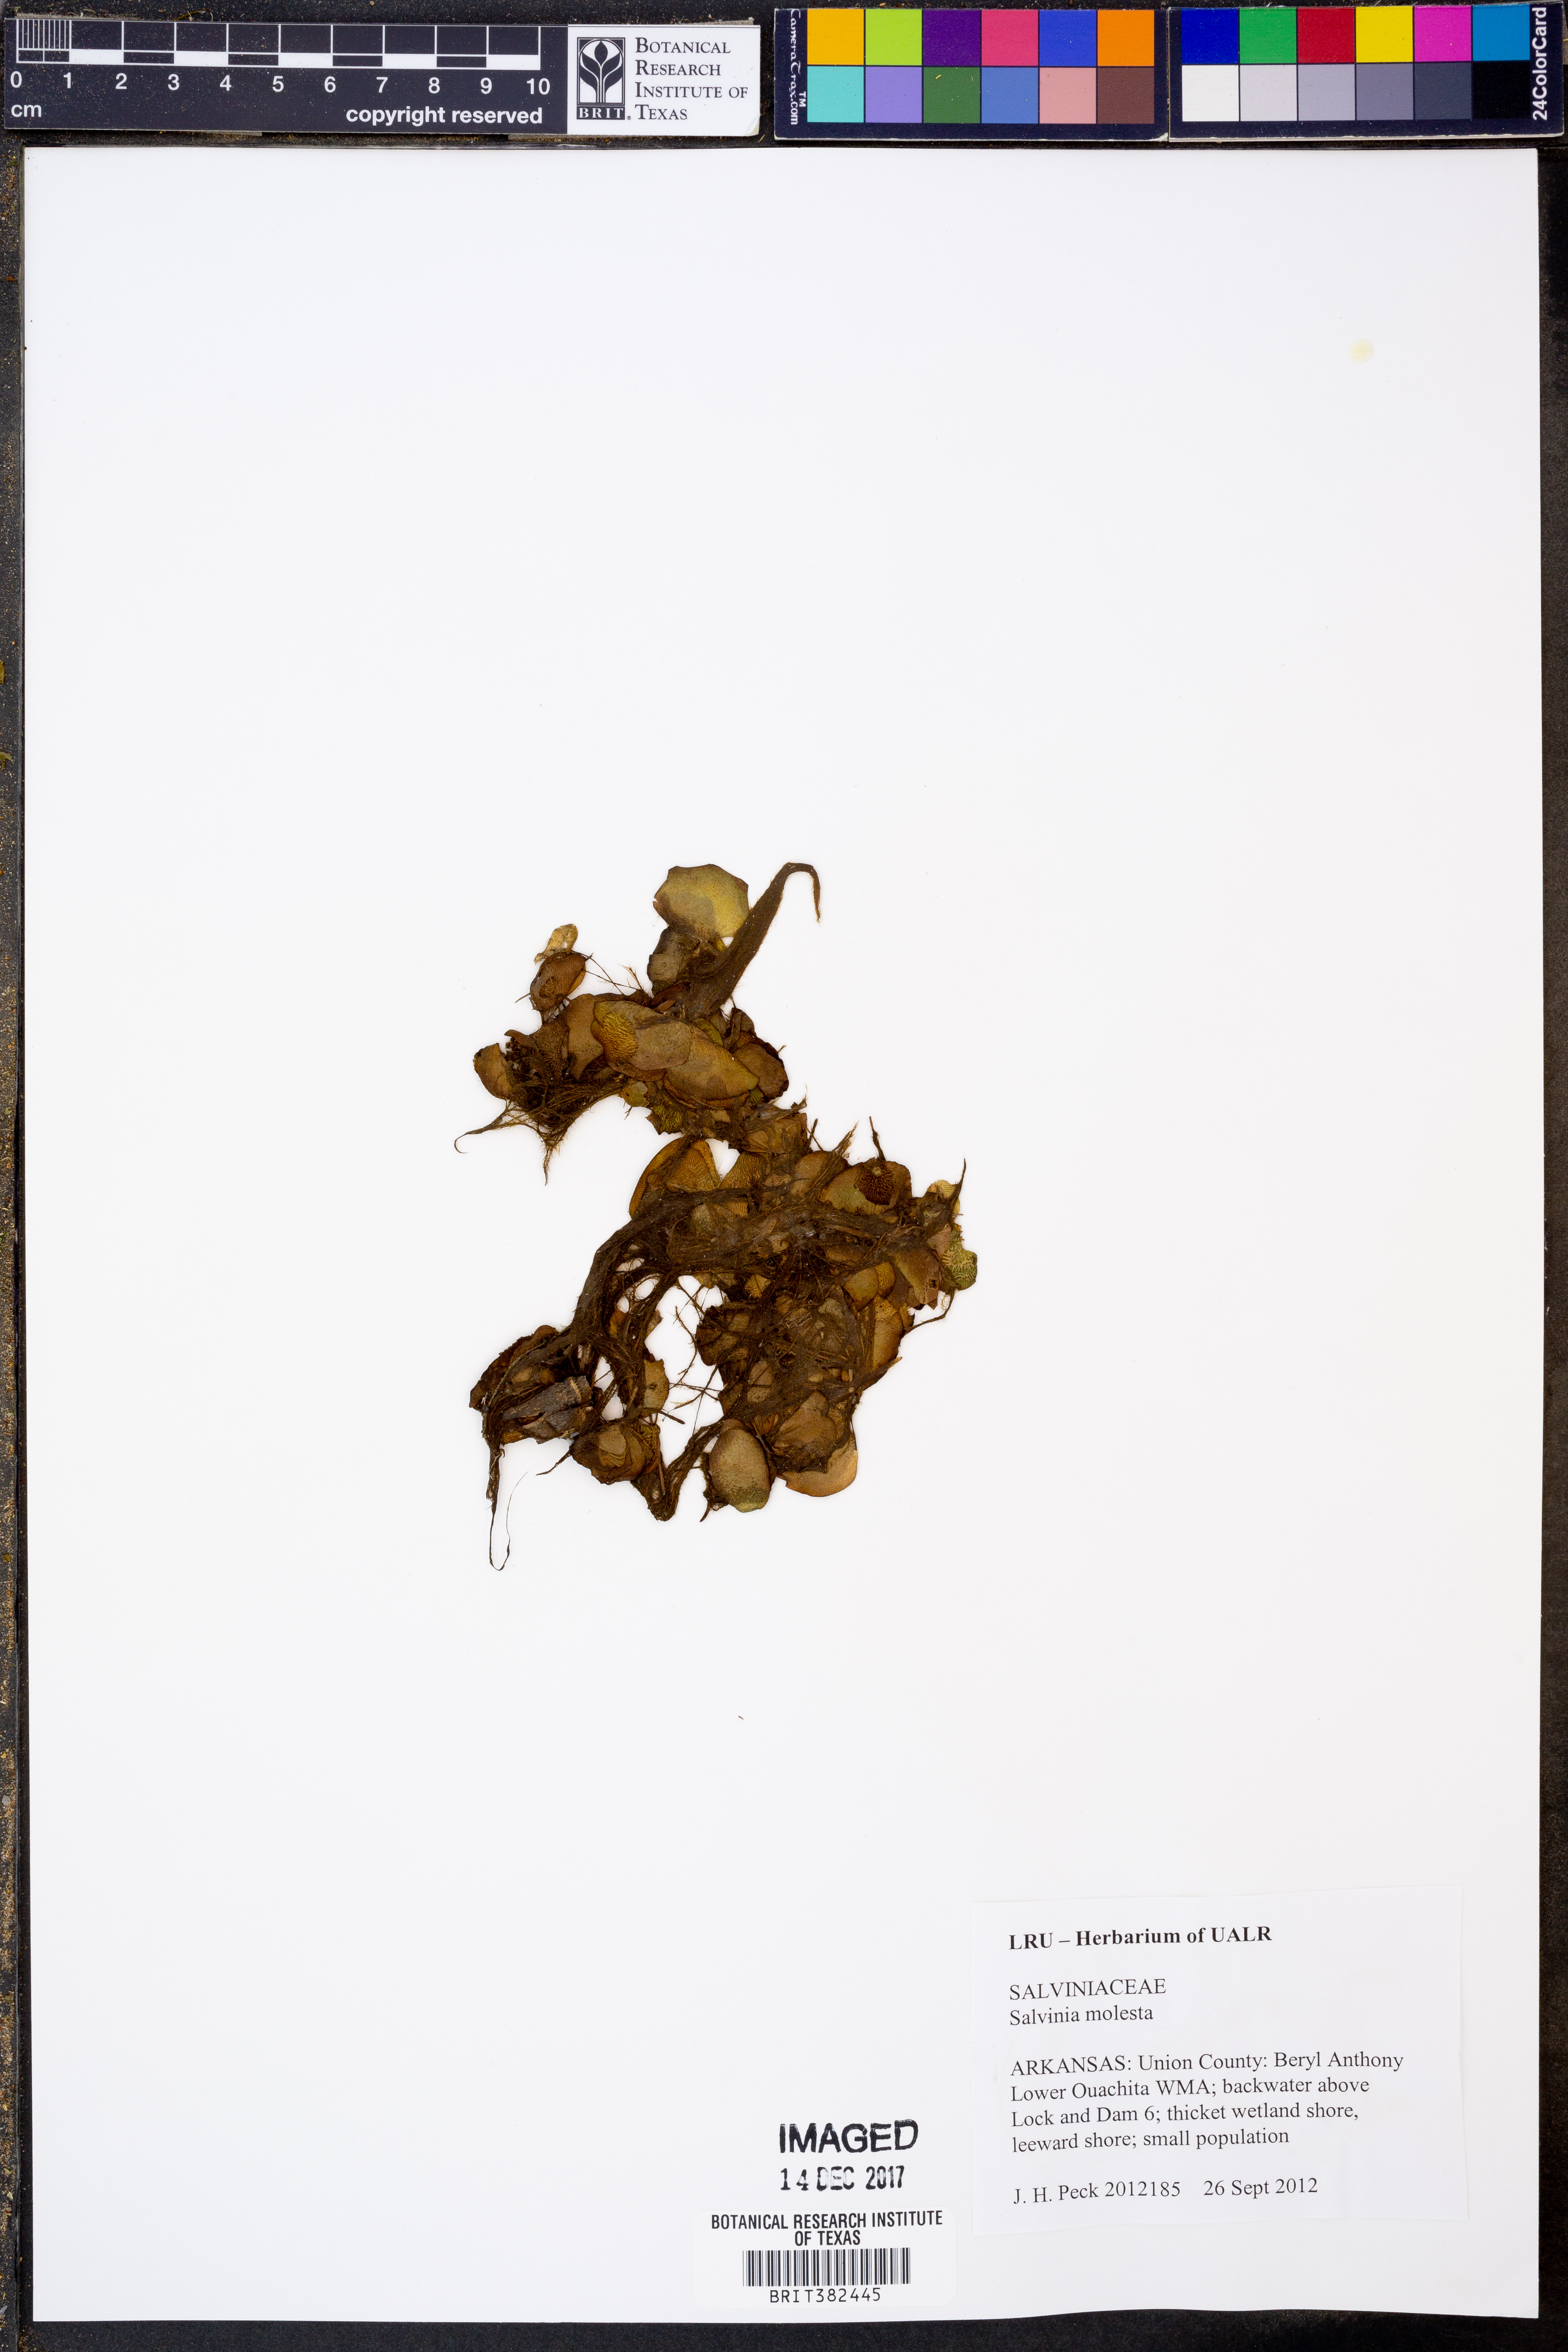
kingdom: Plantae
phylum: Tracheophyta
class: Polypodiopsida
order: Salviniales
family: Salviniaceae
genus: Salvinia
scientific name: Salvinia molesta
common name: Kariba weed
